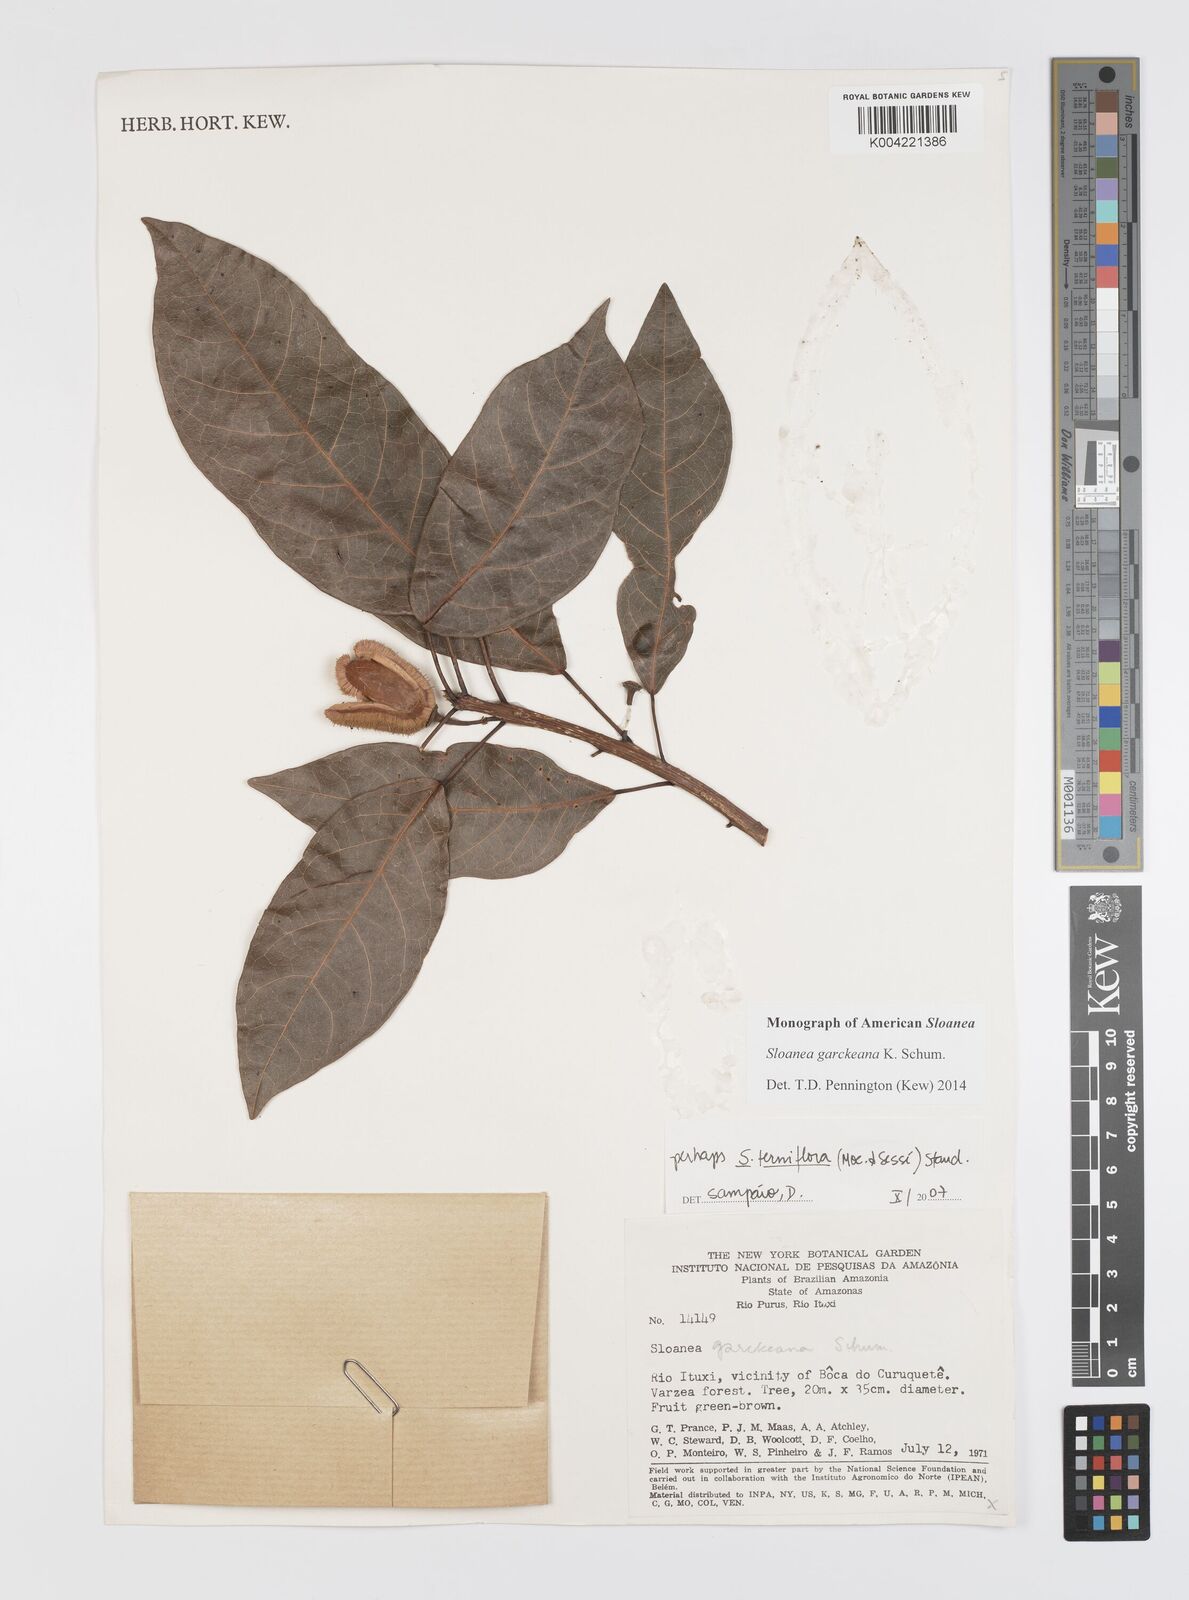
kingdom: Plantae
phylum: Tracheophyta
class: Magnoliopsida
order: Oxalidales
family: Elaeocarpaceae
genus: Sloanea
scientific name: Sloanea garckeana
